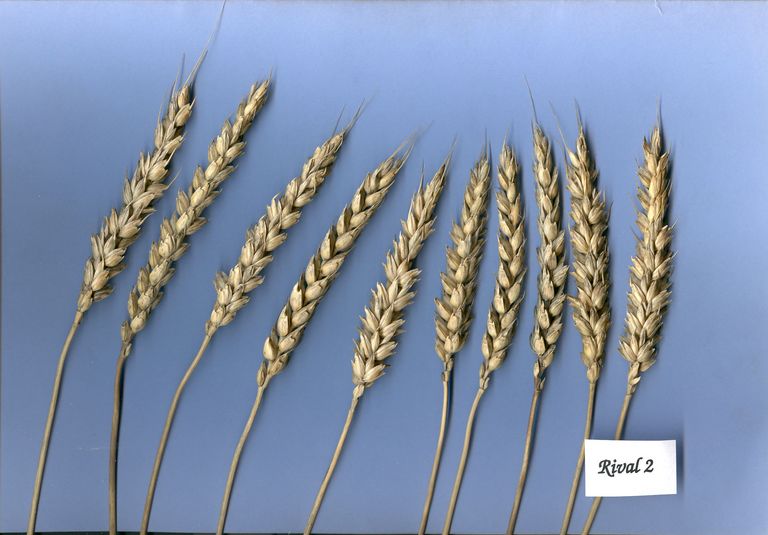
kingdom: Plantae
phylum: Tracheophyta
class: Liliopsida
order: Poales
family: Poaceae
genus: Triticum
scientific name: Triticum aestivum
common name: Common wheat
